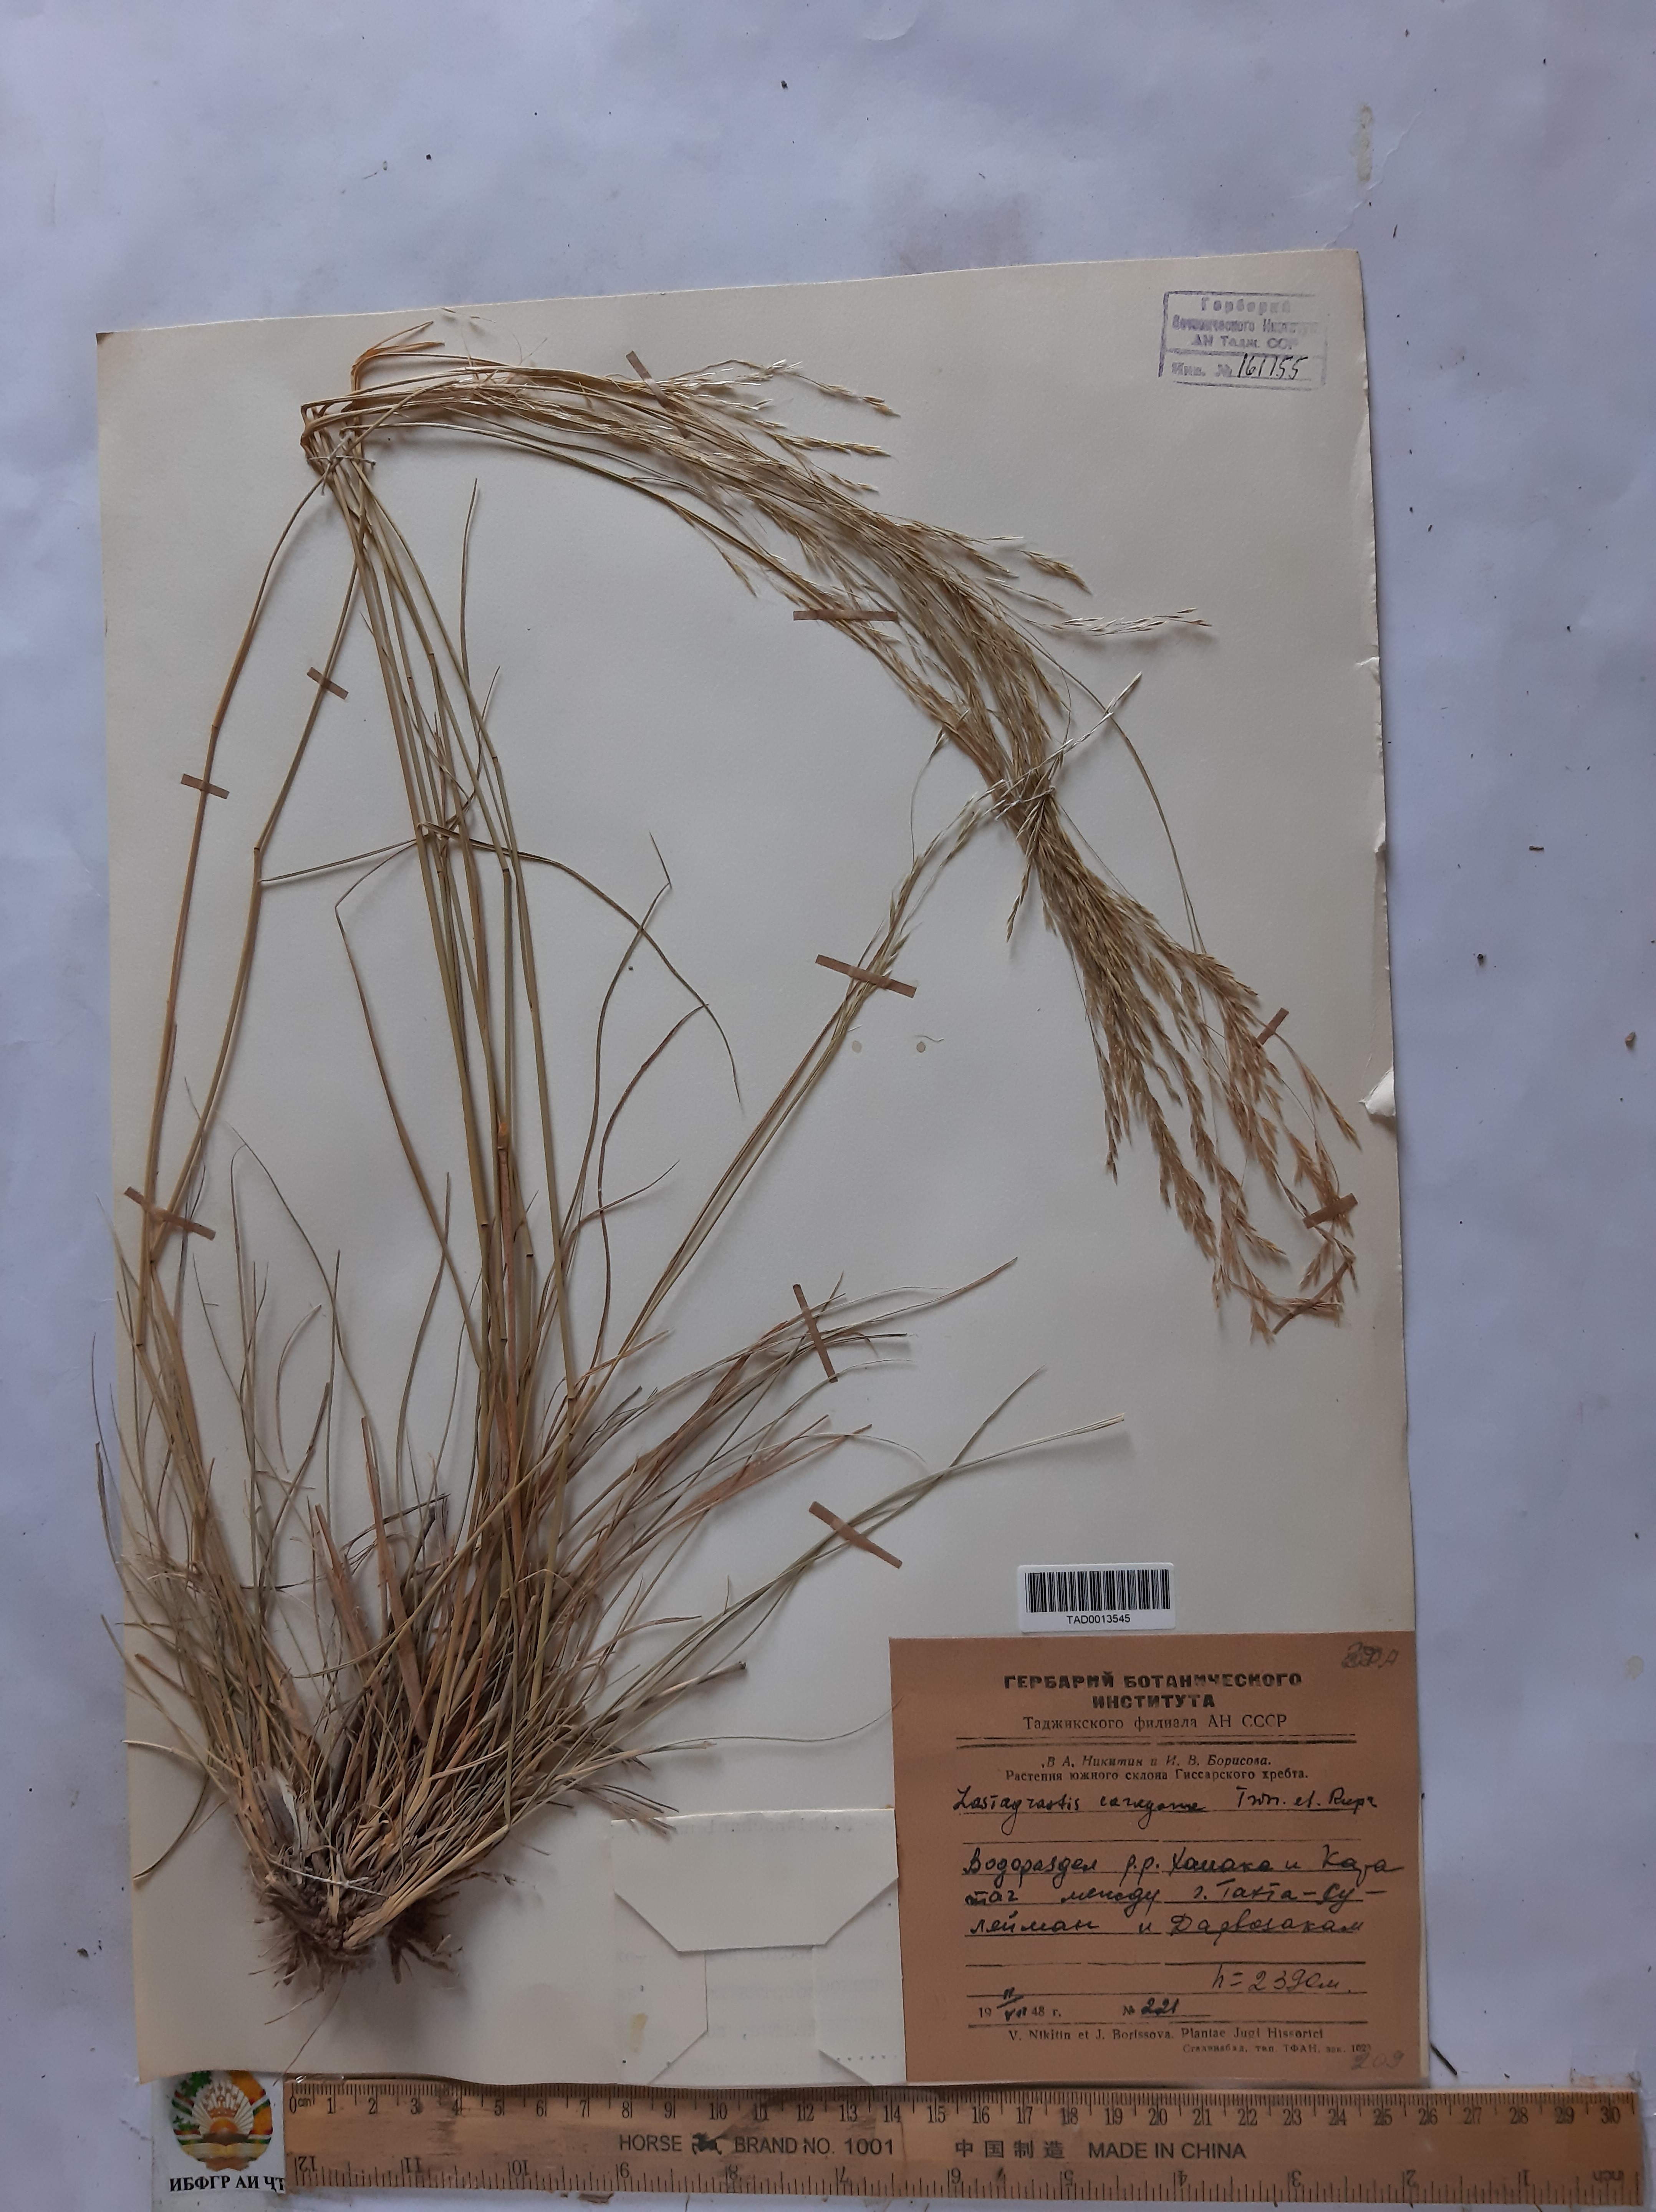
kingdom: Plantae
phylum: Tracheophyta
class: Liliopsida
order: Poales
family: Poaceae
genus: Stipa
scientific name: Stipa conferta
